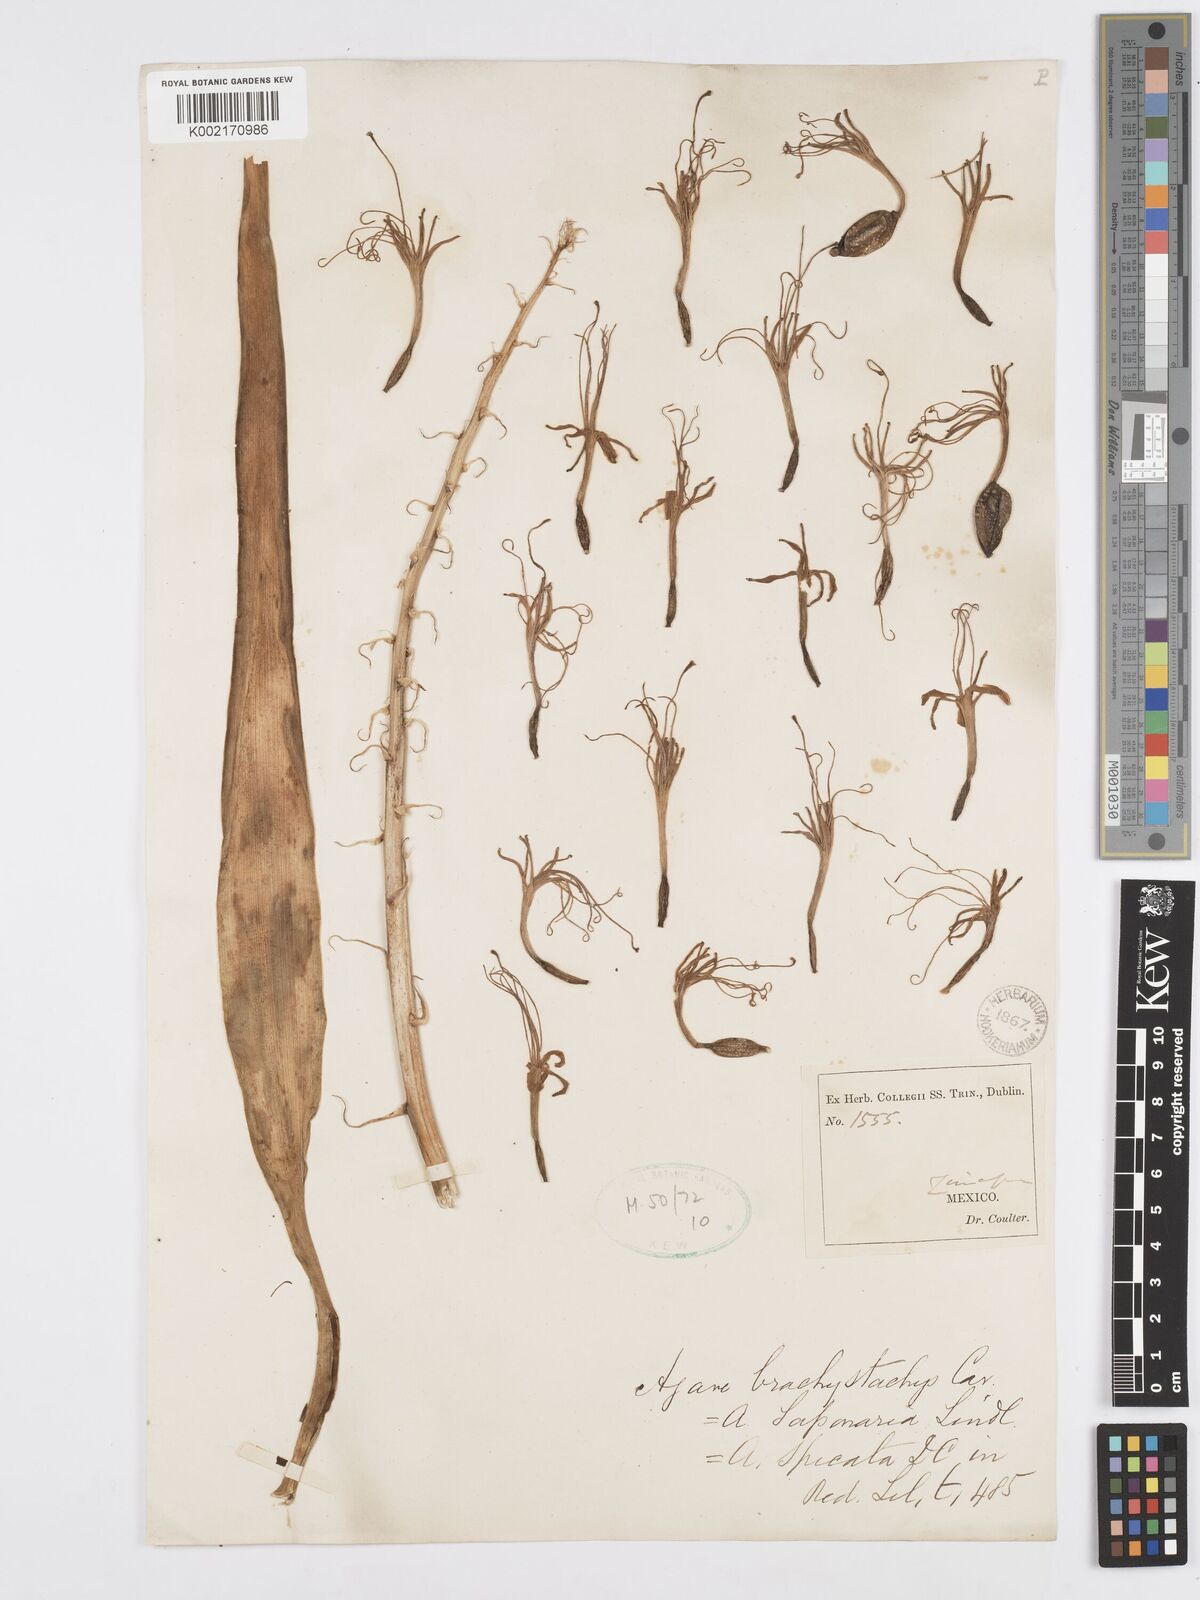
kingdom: Plantae
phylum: Tracheophyta
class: Liliopsida
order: Asparagales
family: Asparagaceae
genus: Agave
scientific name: Agave scabra
